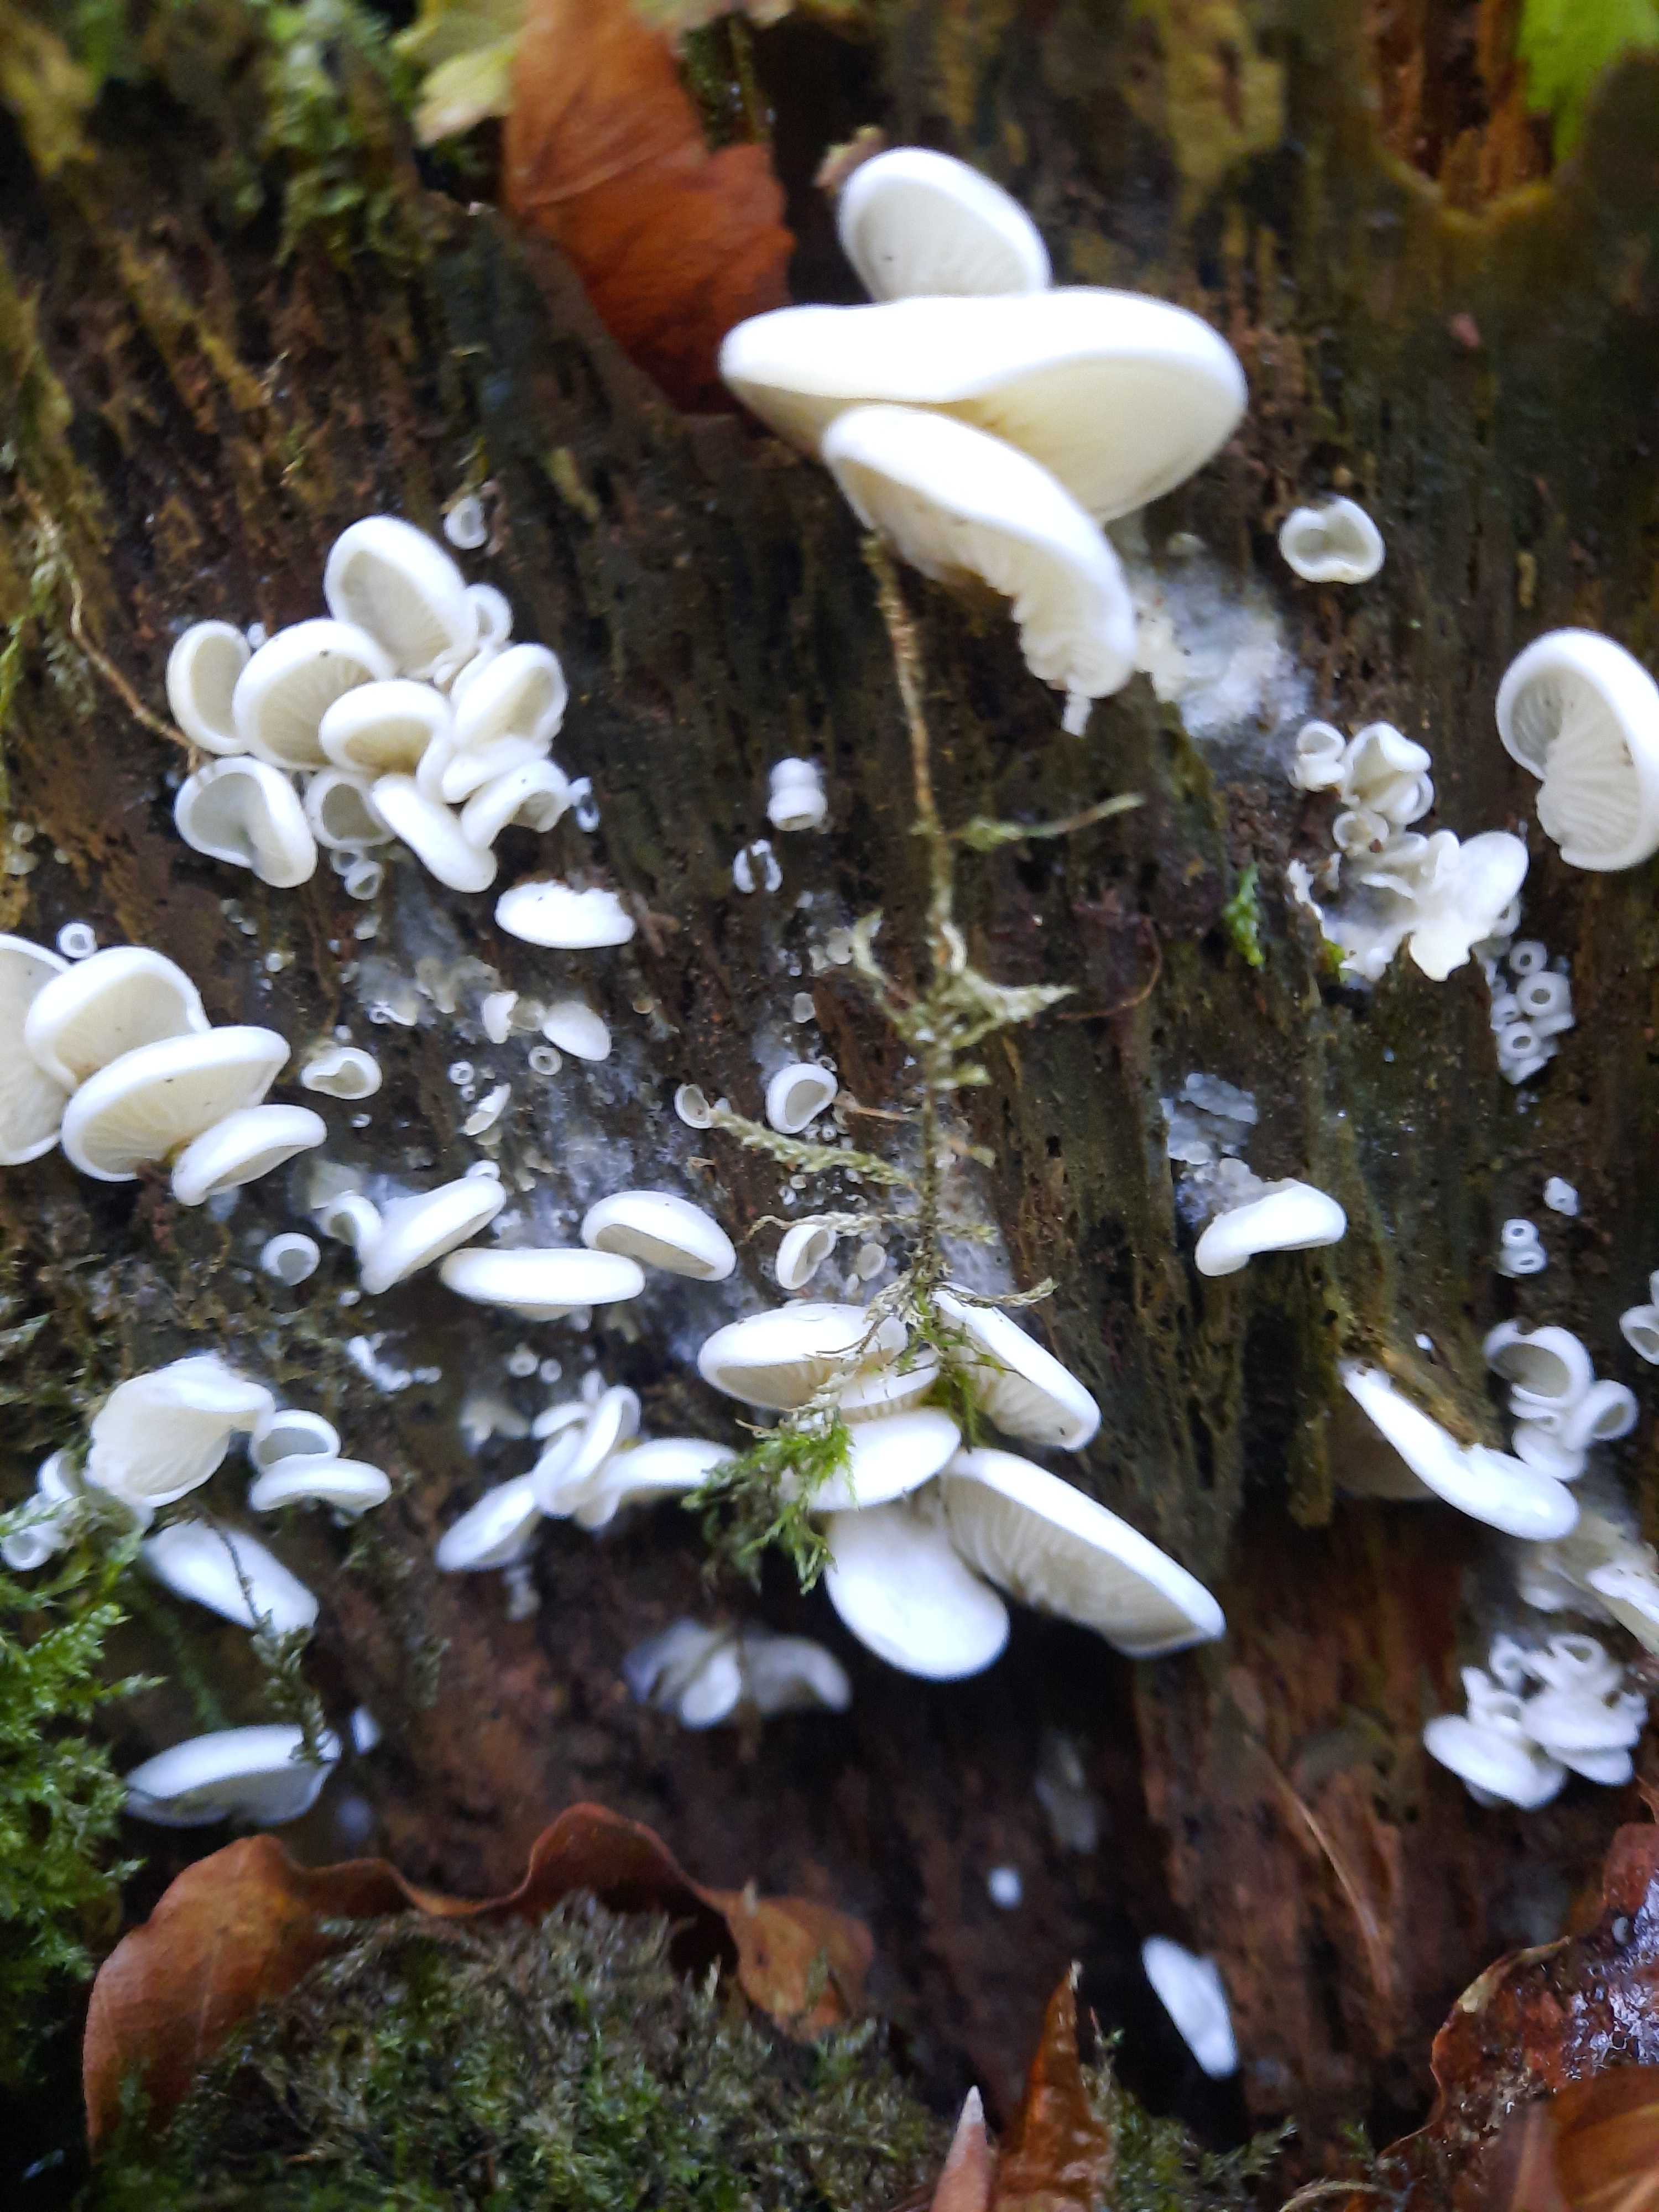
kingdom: Fungi
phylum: Basidiomycota
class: Agaricomycetes
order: Agaricales
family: Marasmiaceae
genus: Pleurocybella
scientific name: Pleurocybella porrigens
